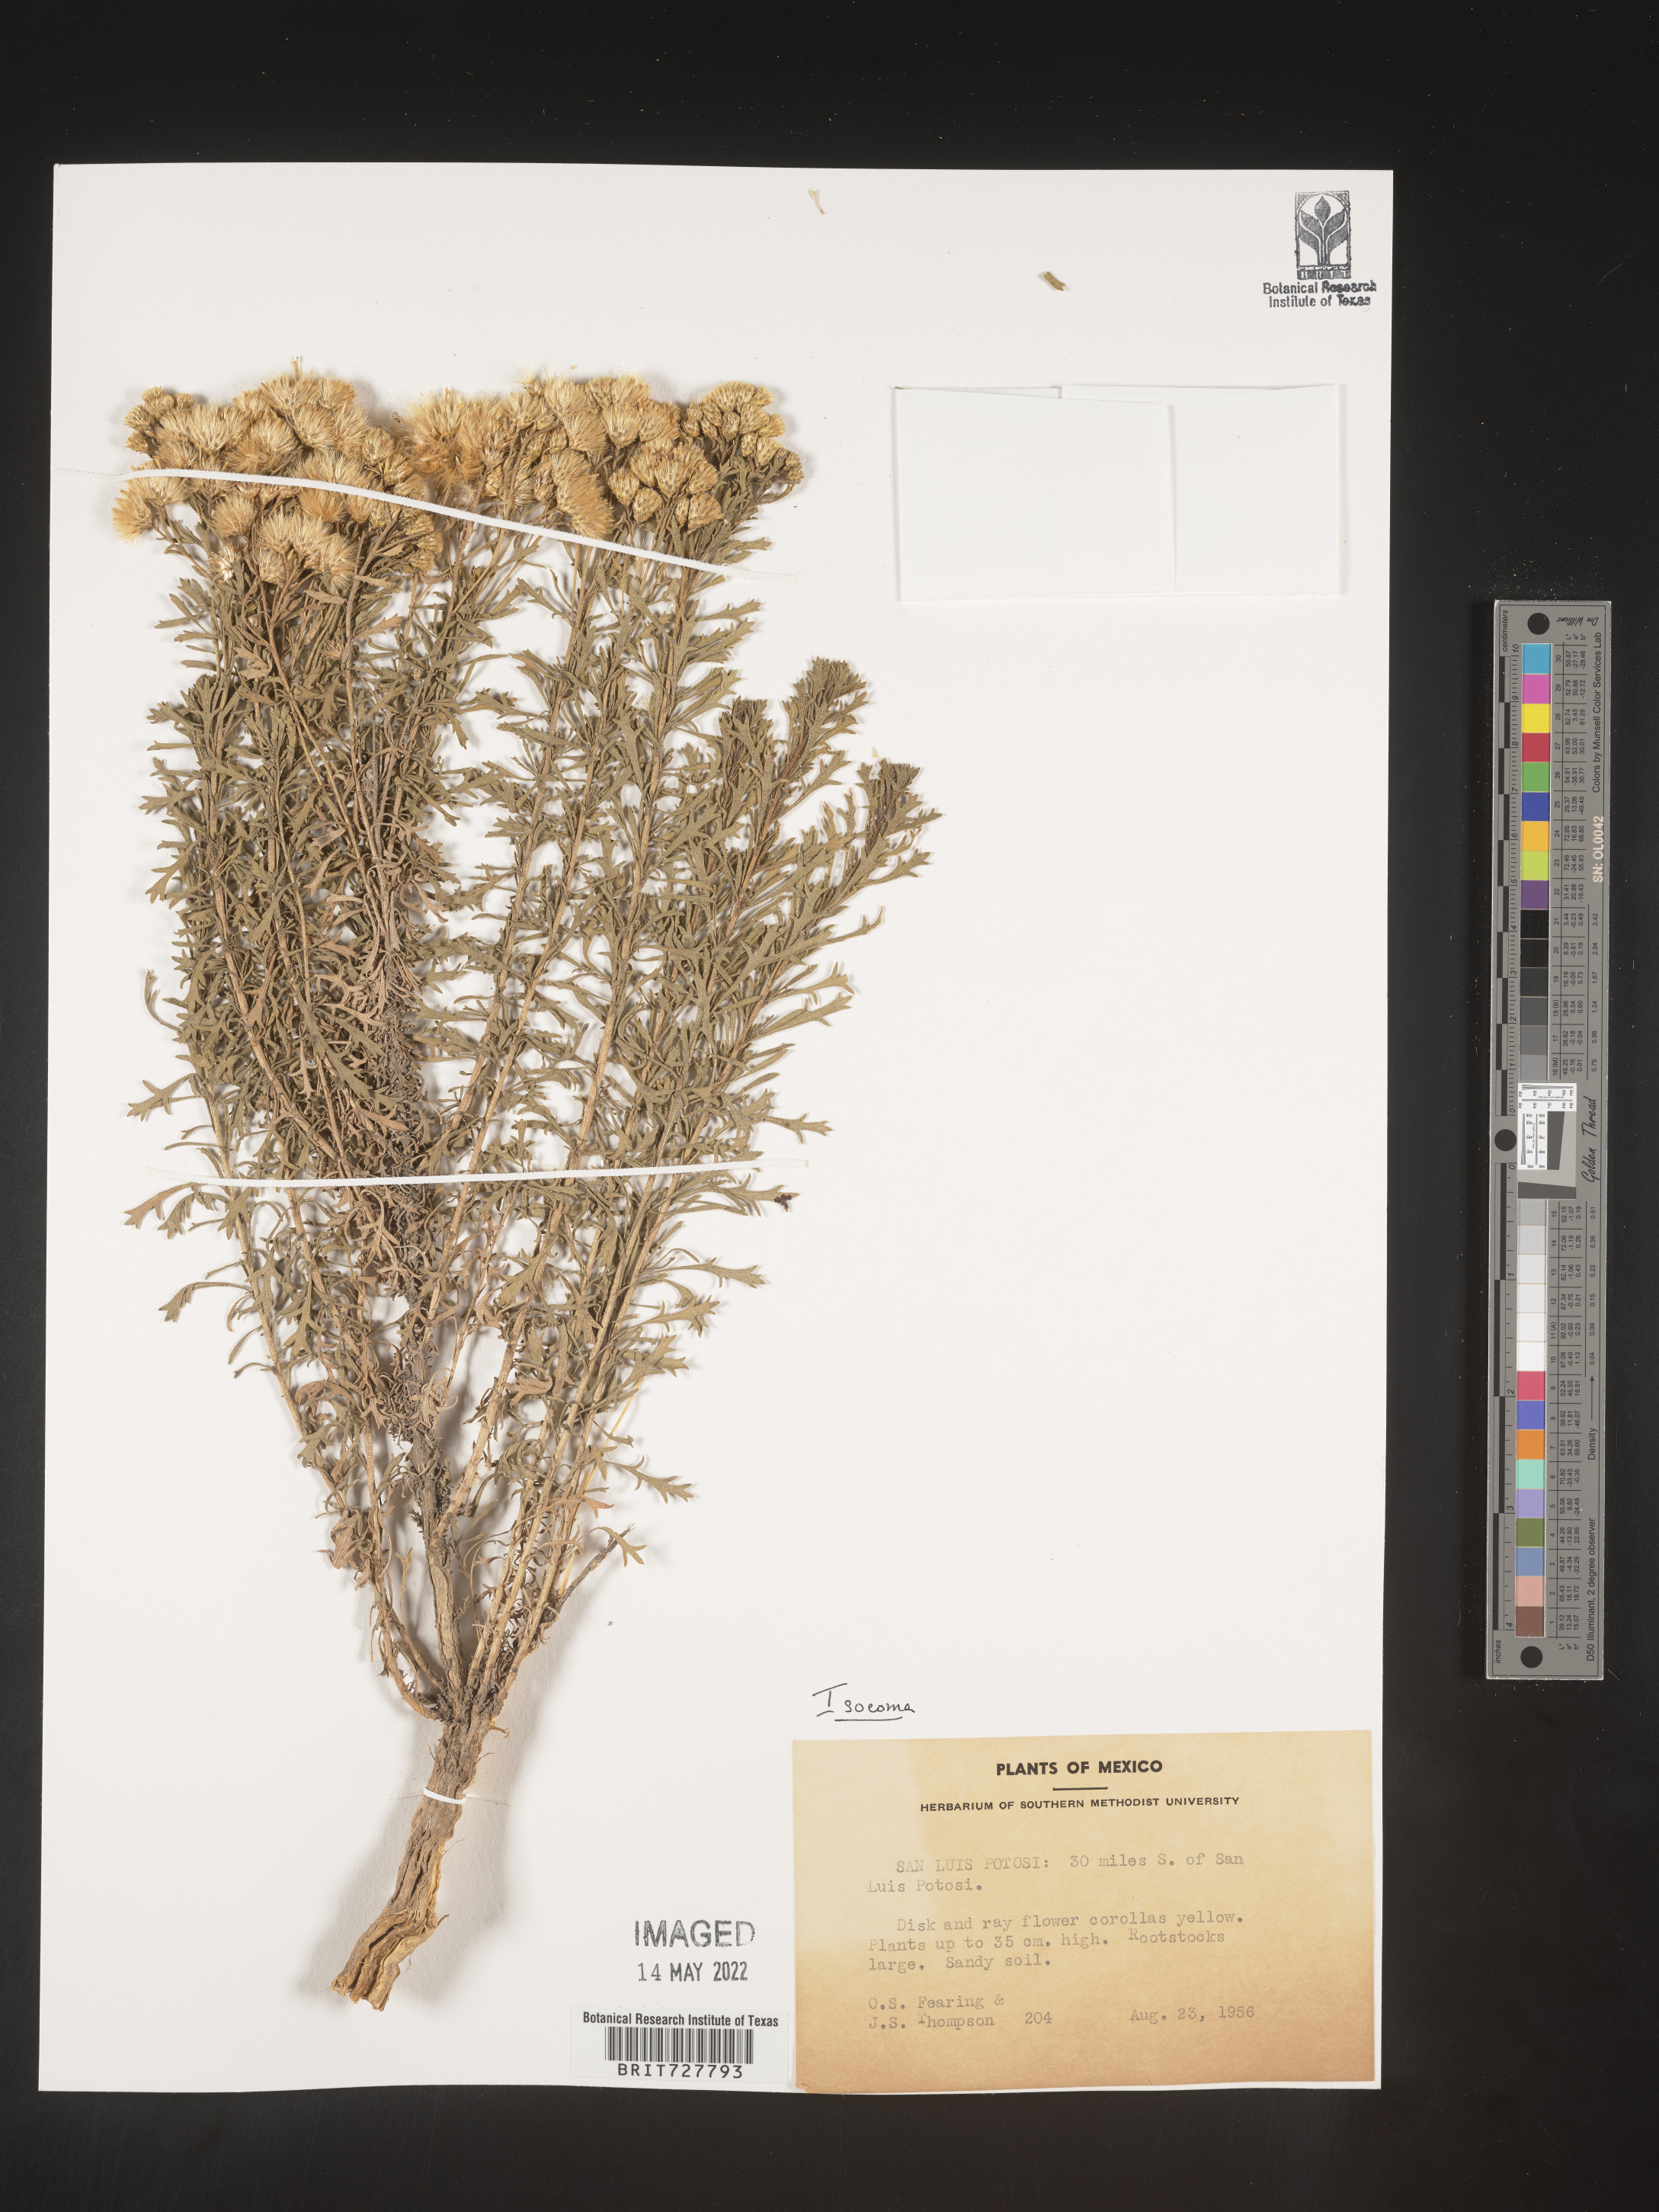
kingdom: Plantae
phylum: Tracheophyta
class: Magnoliopsida
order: Asterales
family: Asteraceae
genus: Isocoma
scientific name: Isocoma
